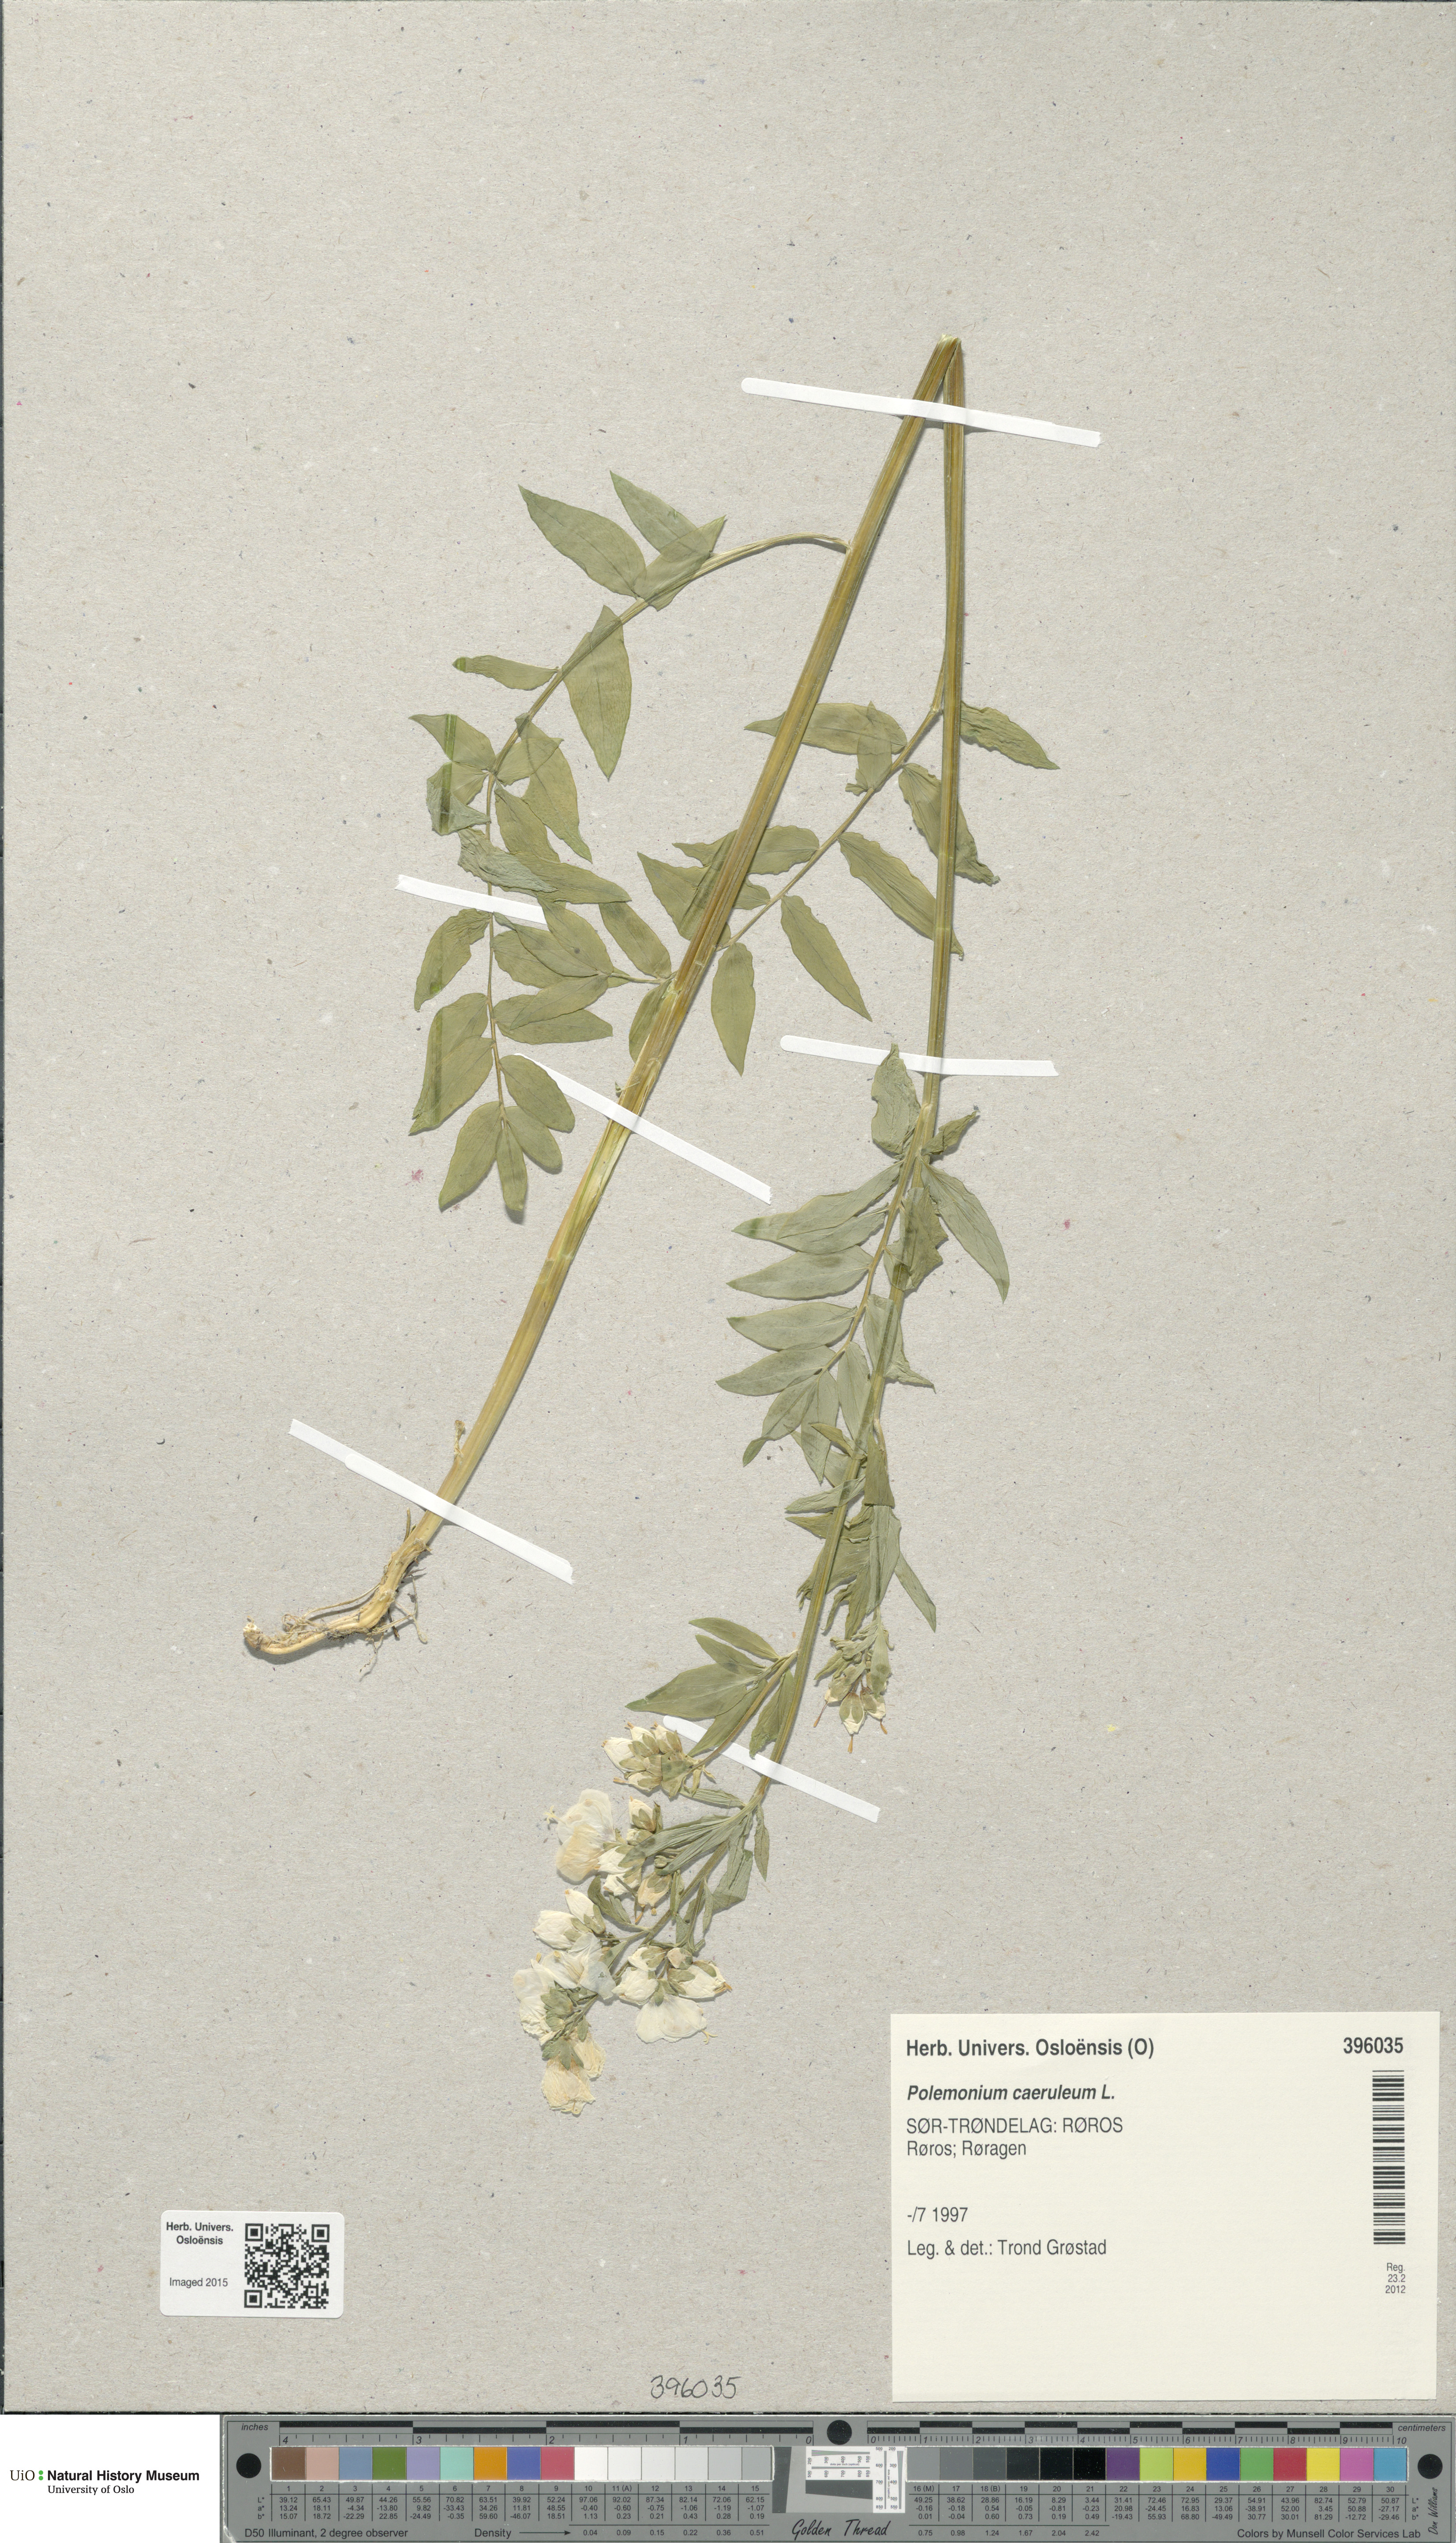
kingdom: Plantae
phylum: Tracheophyta
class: Magnoliopsida
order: Ericales
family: Polemoniaceae
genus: Polemonium
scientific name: Polemonium caeruleum
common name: Jacob's-ladder
